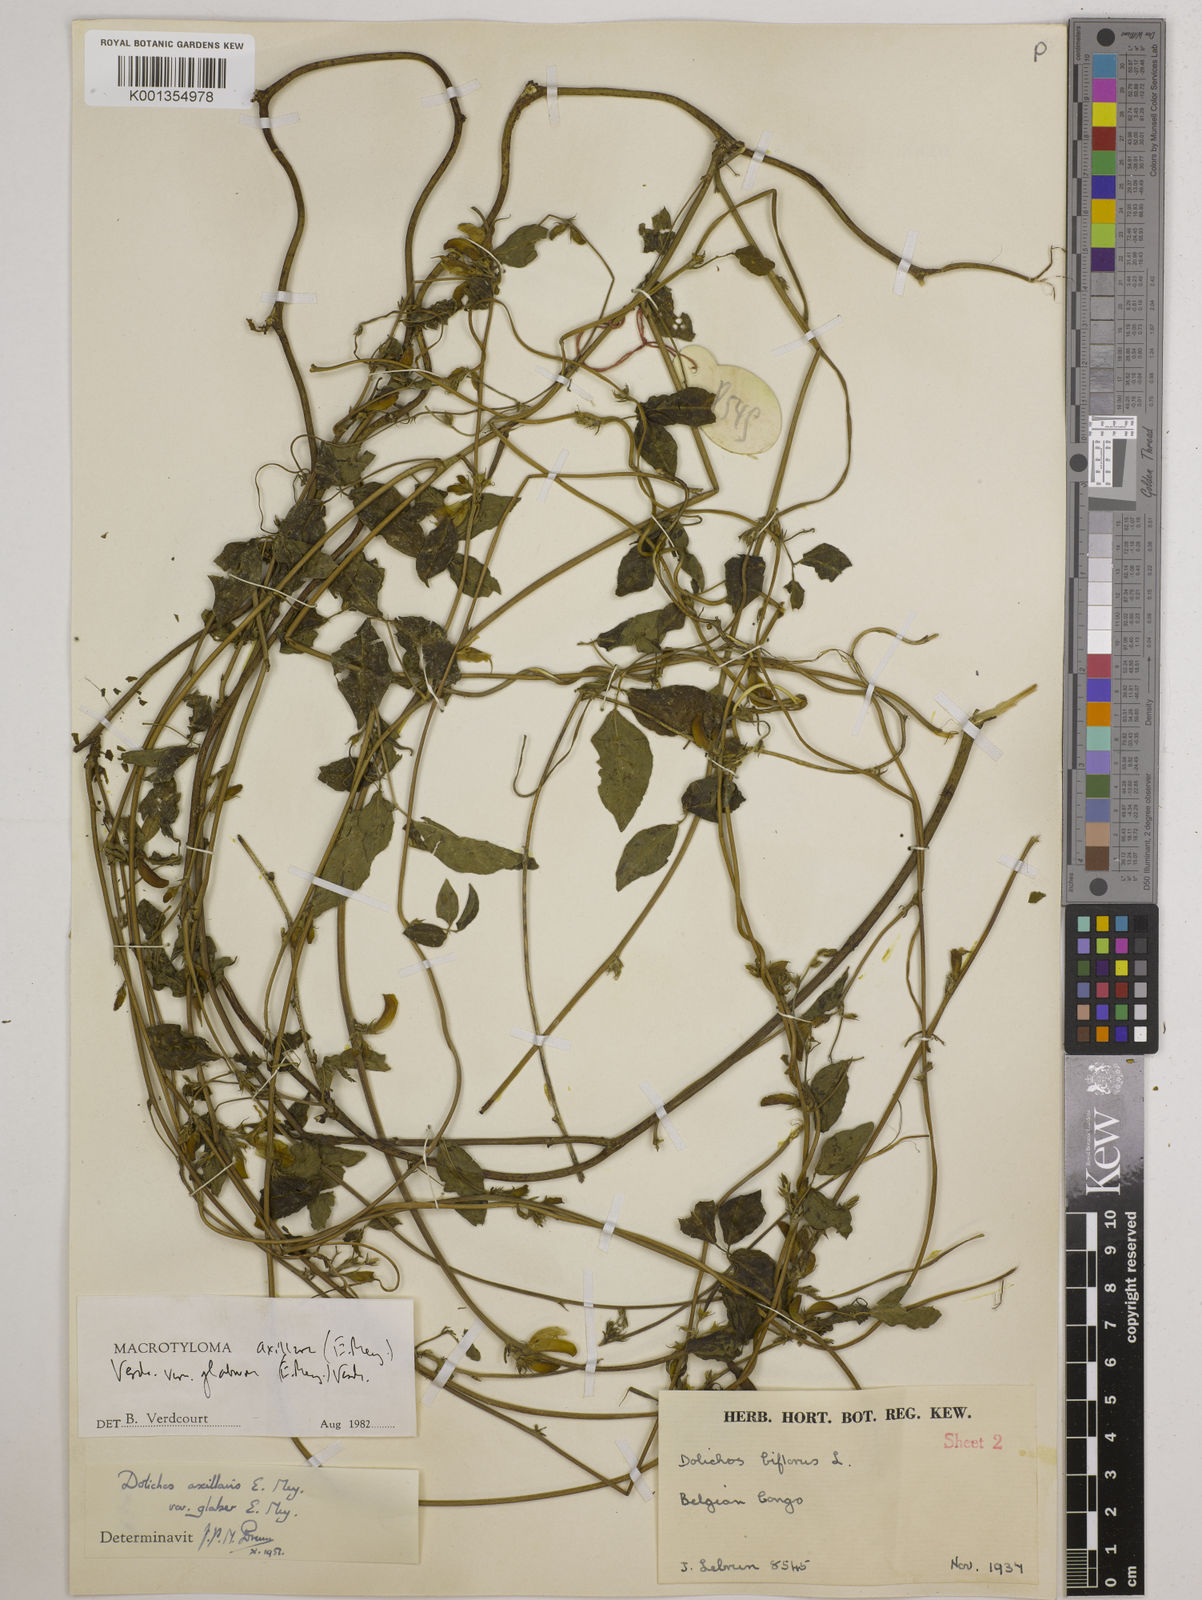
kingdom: Plantae
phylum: Tracheophyta
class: Magnoliopsida
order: Fabales
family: Fabaceae
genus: Macrotyloma
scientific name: Macrotyloma
